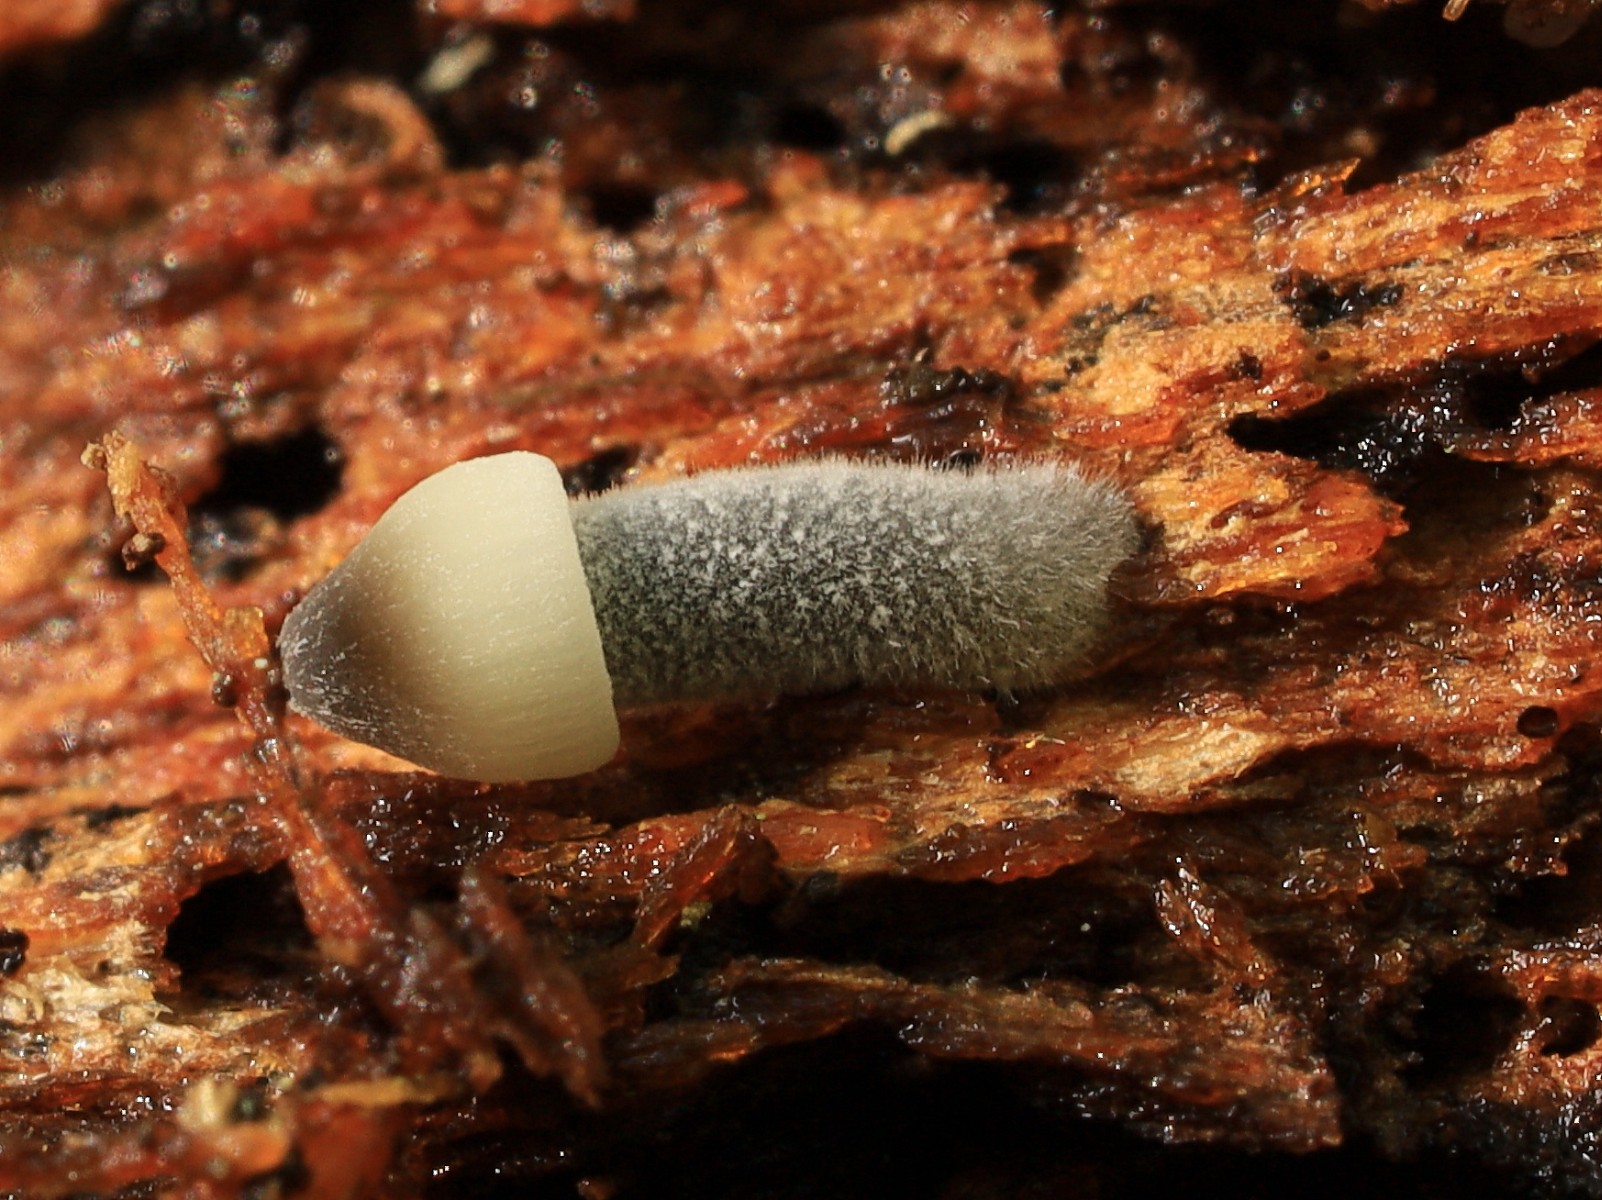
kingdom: Fungi
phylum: Basidiomycota
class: Agaricomycetes
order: Agaricales
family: Mycenaceae
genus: Mycena
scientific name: Mycena amicta
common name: iris-huesvamp
